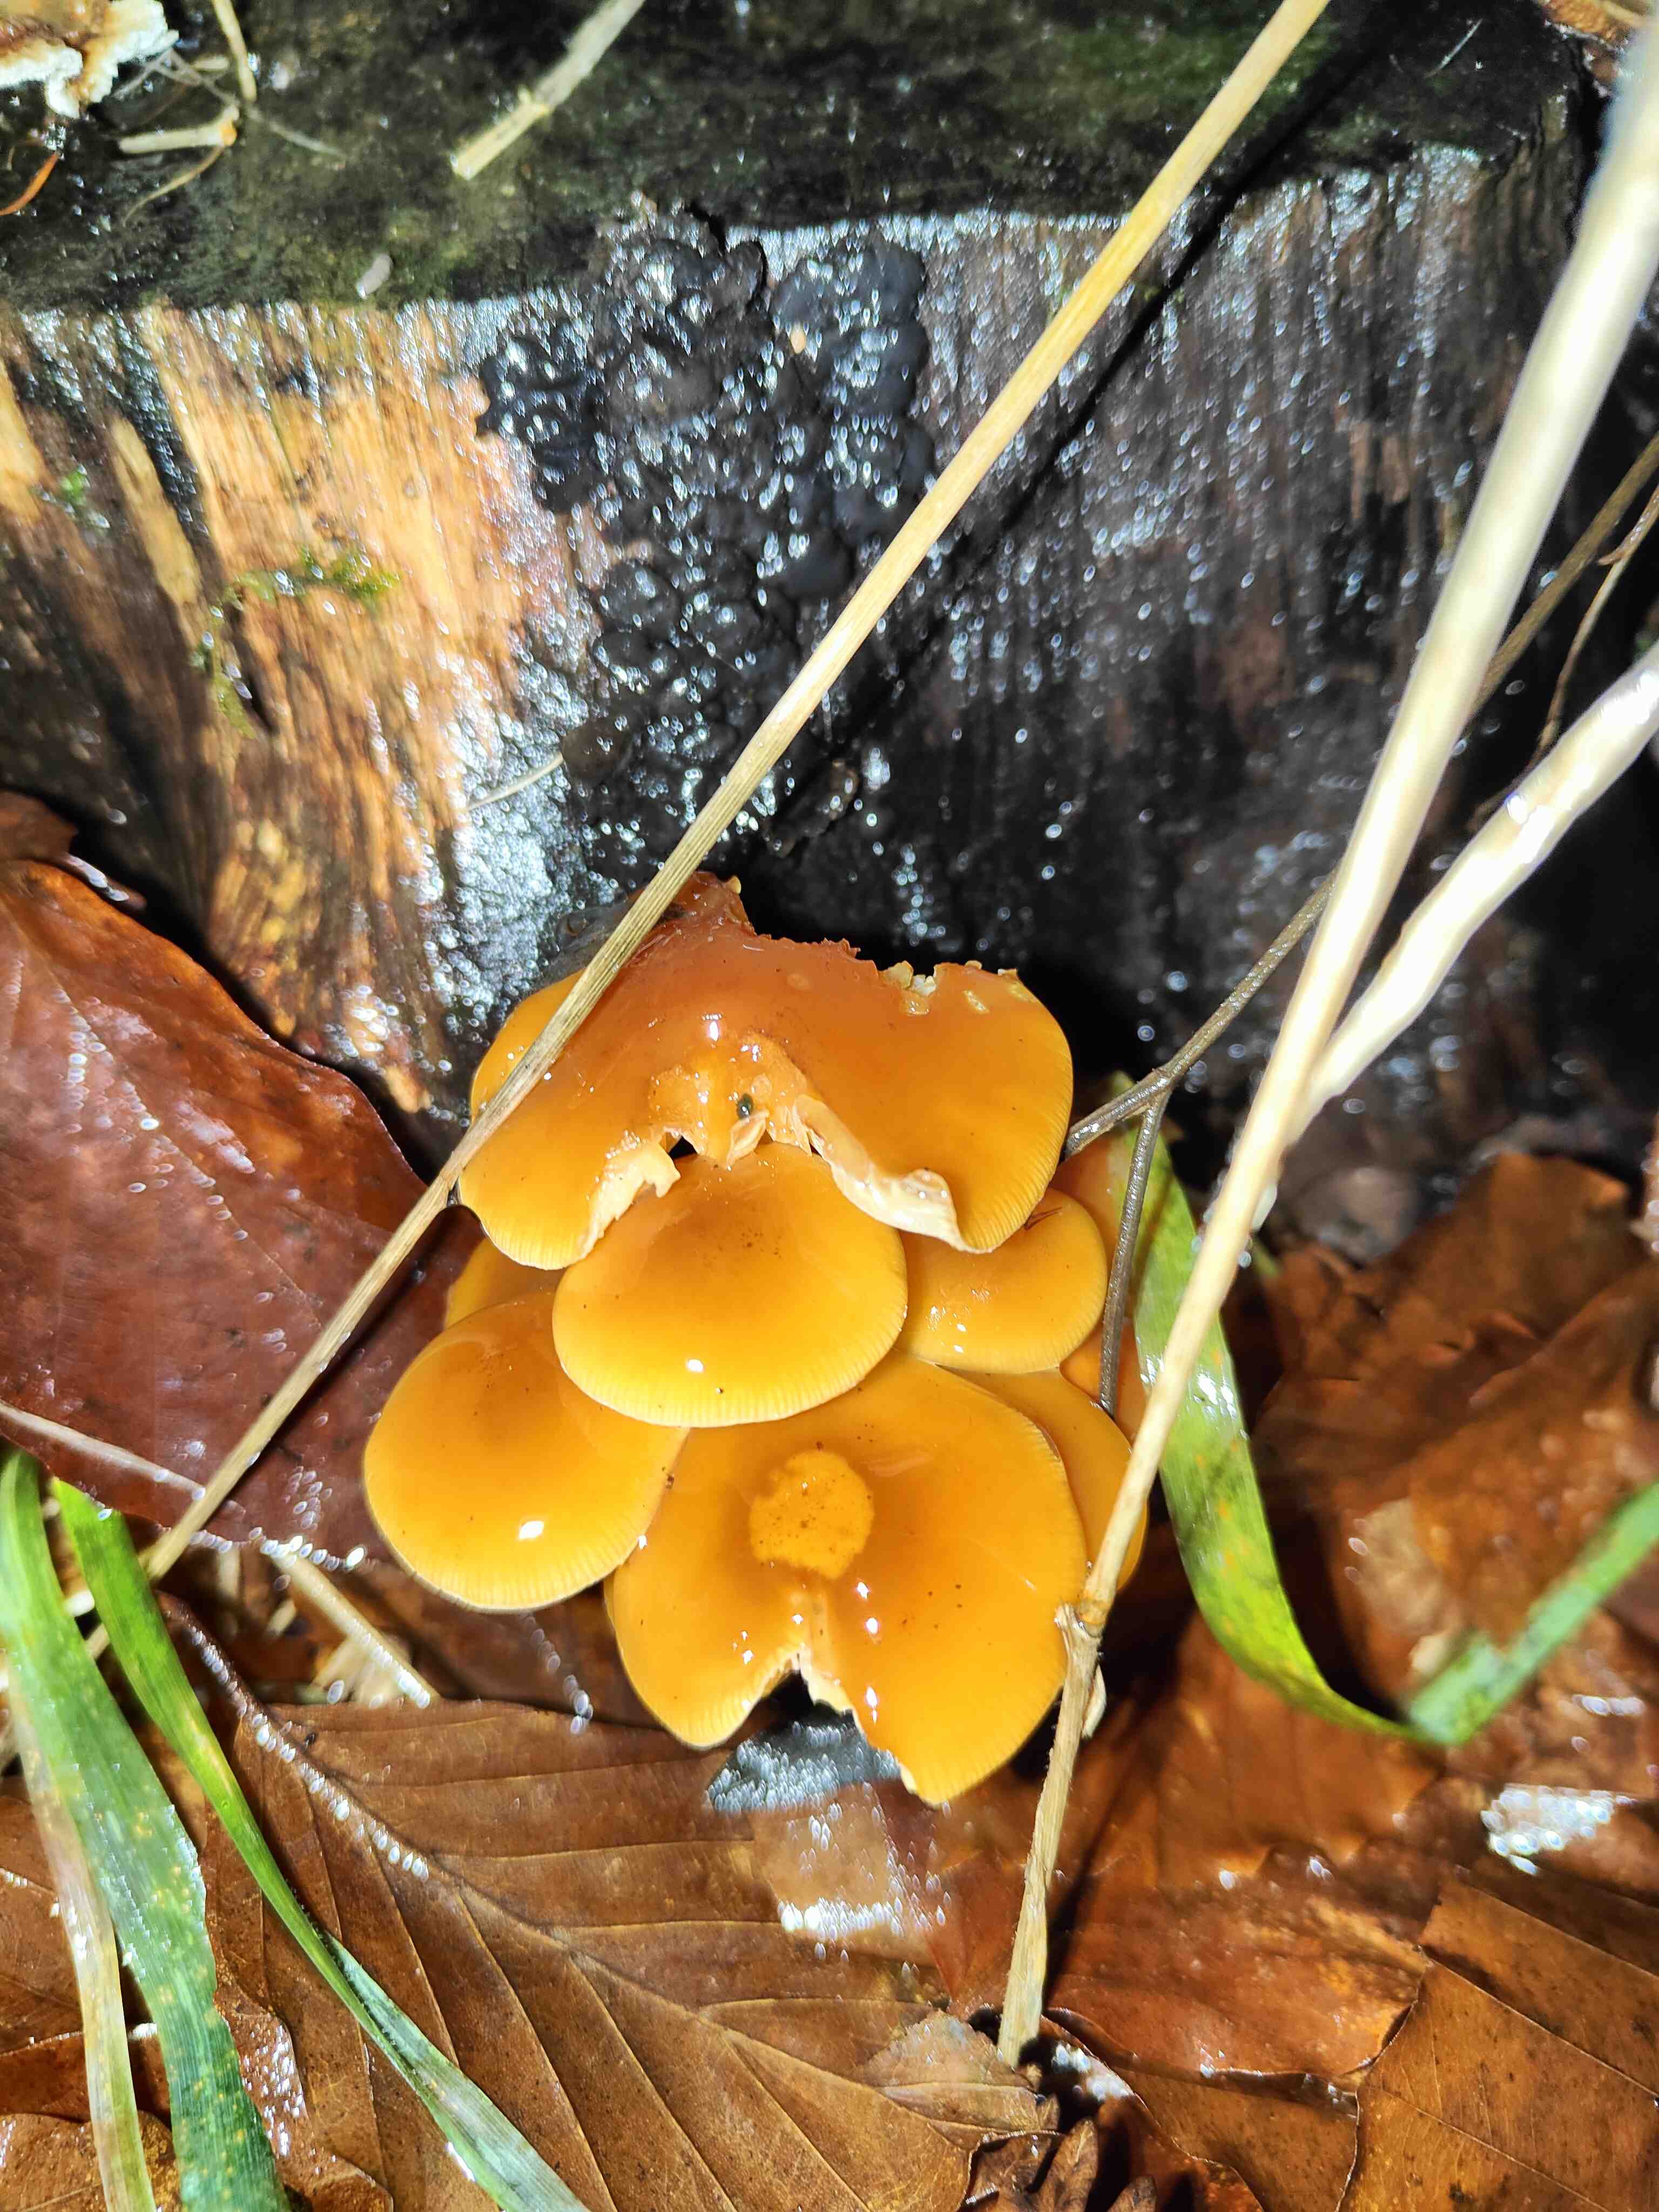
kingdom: Fungi
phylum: Basidiomycota
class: Agaricomycetes
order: Agaricales
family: Physalacriaceae
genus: Flammulina
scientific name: Flammulina velutipes
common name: gul fløjlsfod
